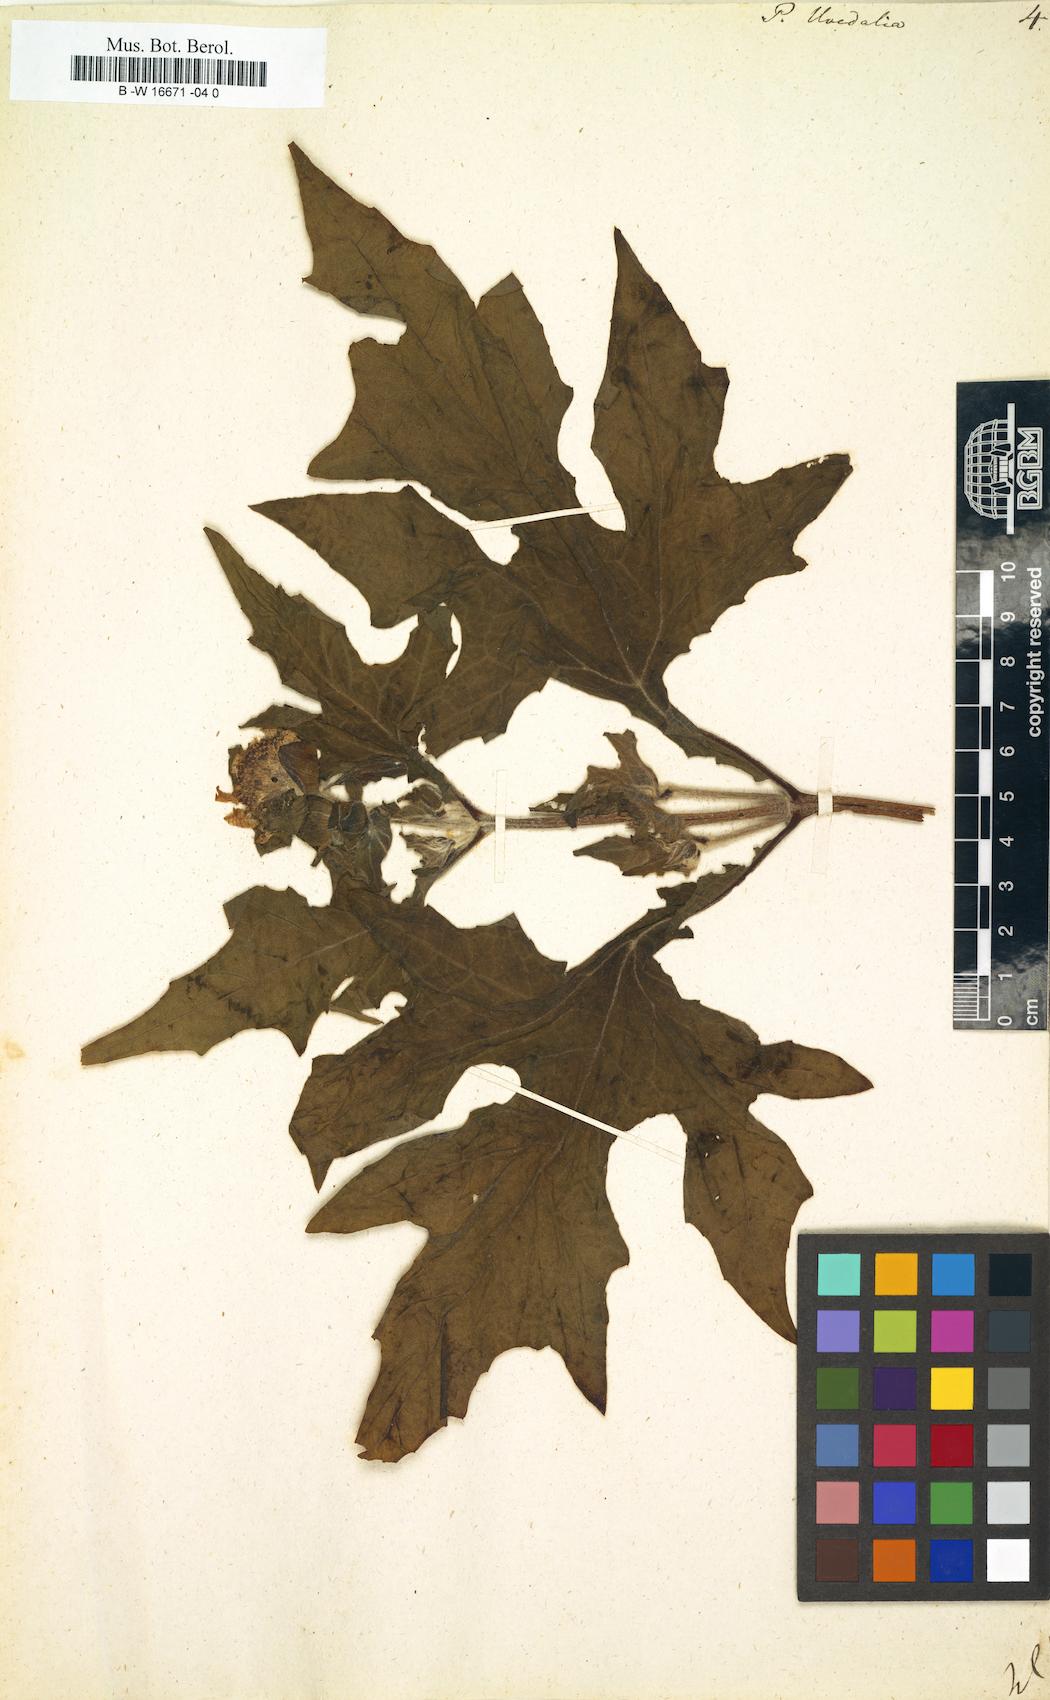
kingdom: Plantae
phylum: Tracheophyta
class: Magnoliopsida
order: Asterales
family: Asteraceae
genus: Smallanthus
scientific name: Smallanthus uvedalia
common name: Bear's-foot
